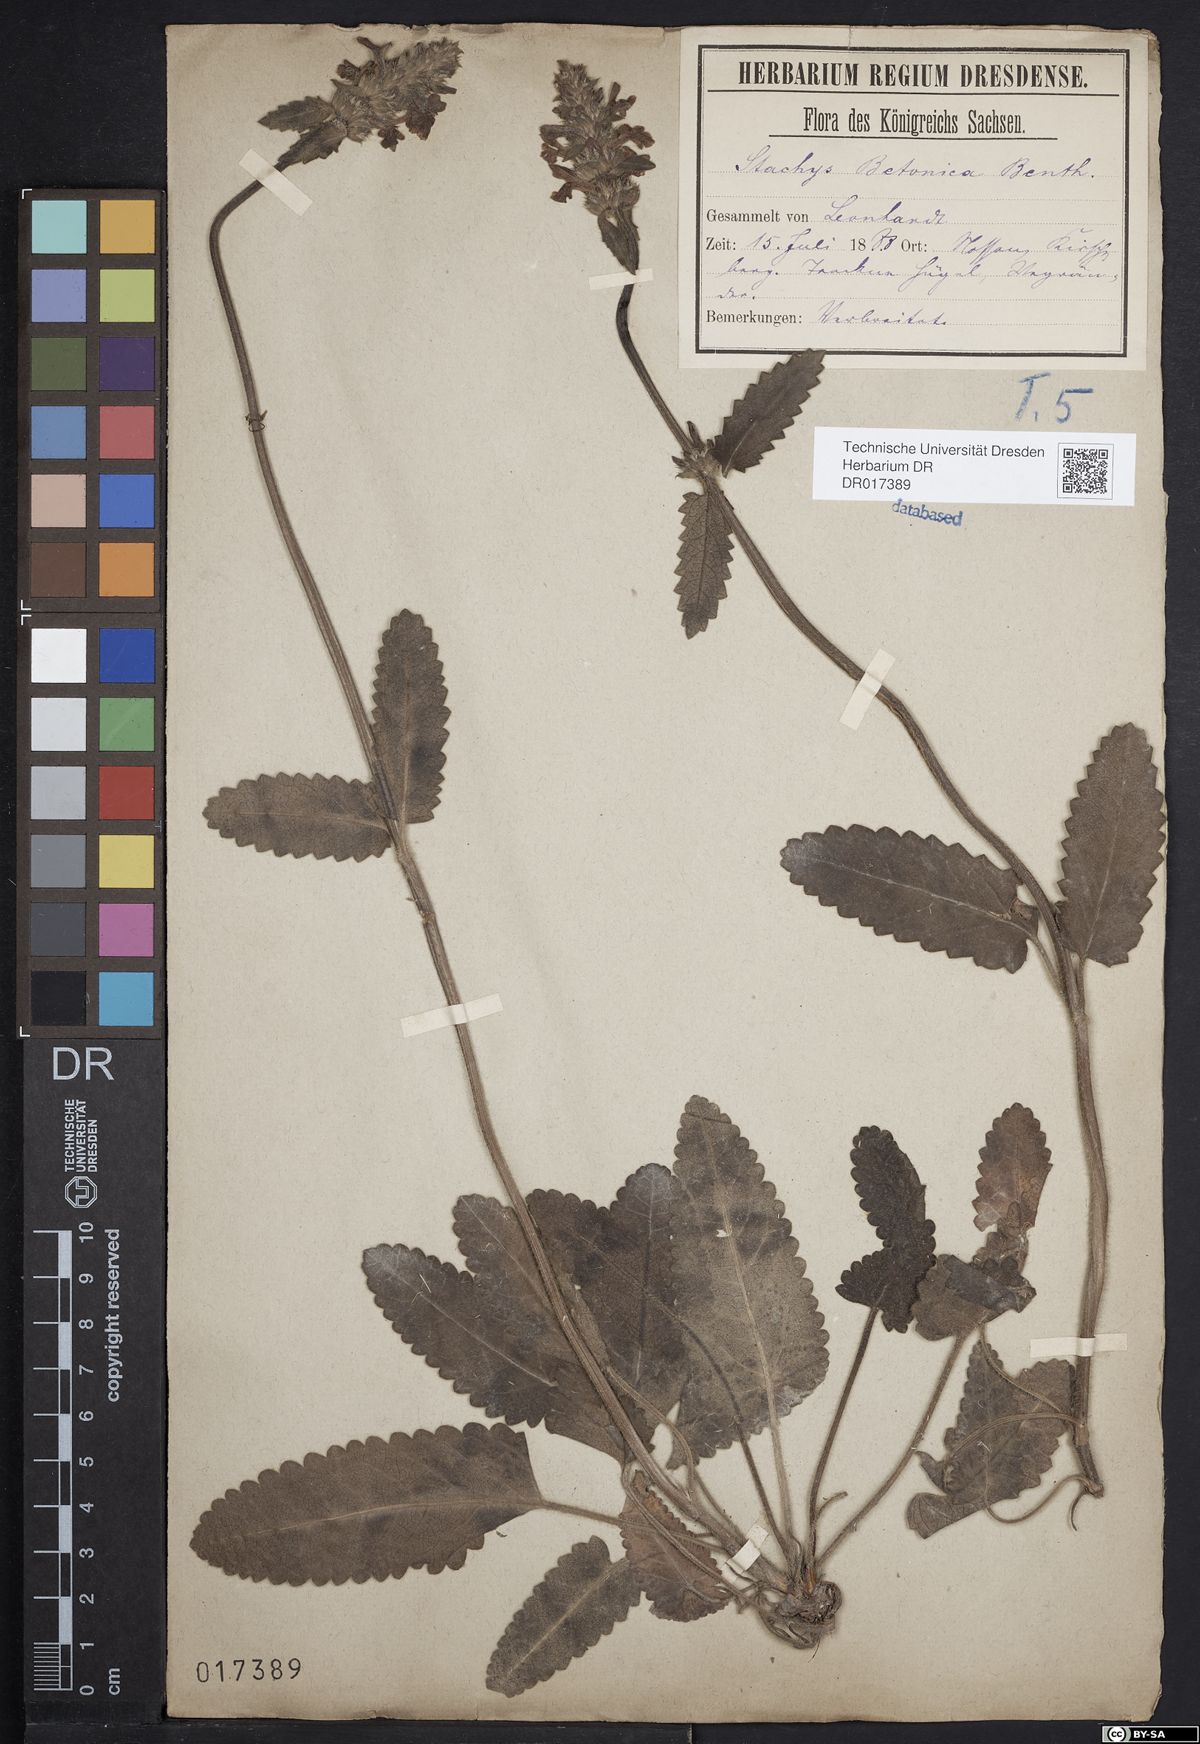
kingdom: Plantae
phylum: Tracheophyta
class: Magnoliopsida
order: Lamiales
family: Lamiaceae
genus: Betonica
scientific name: Betonica officinalis
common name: Bishop's-wort
